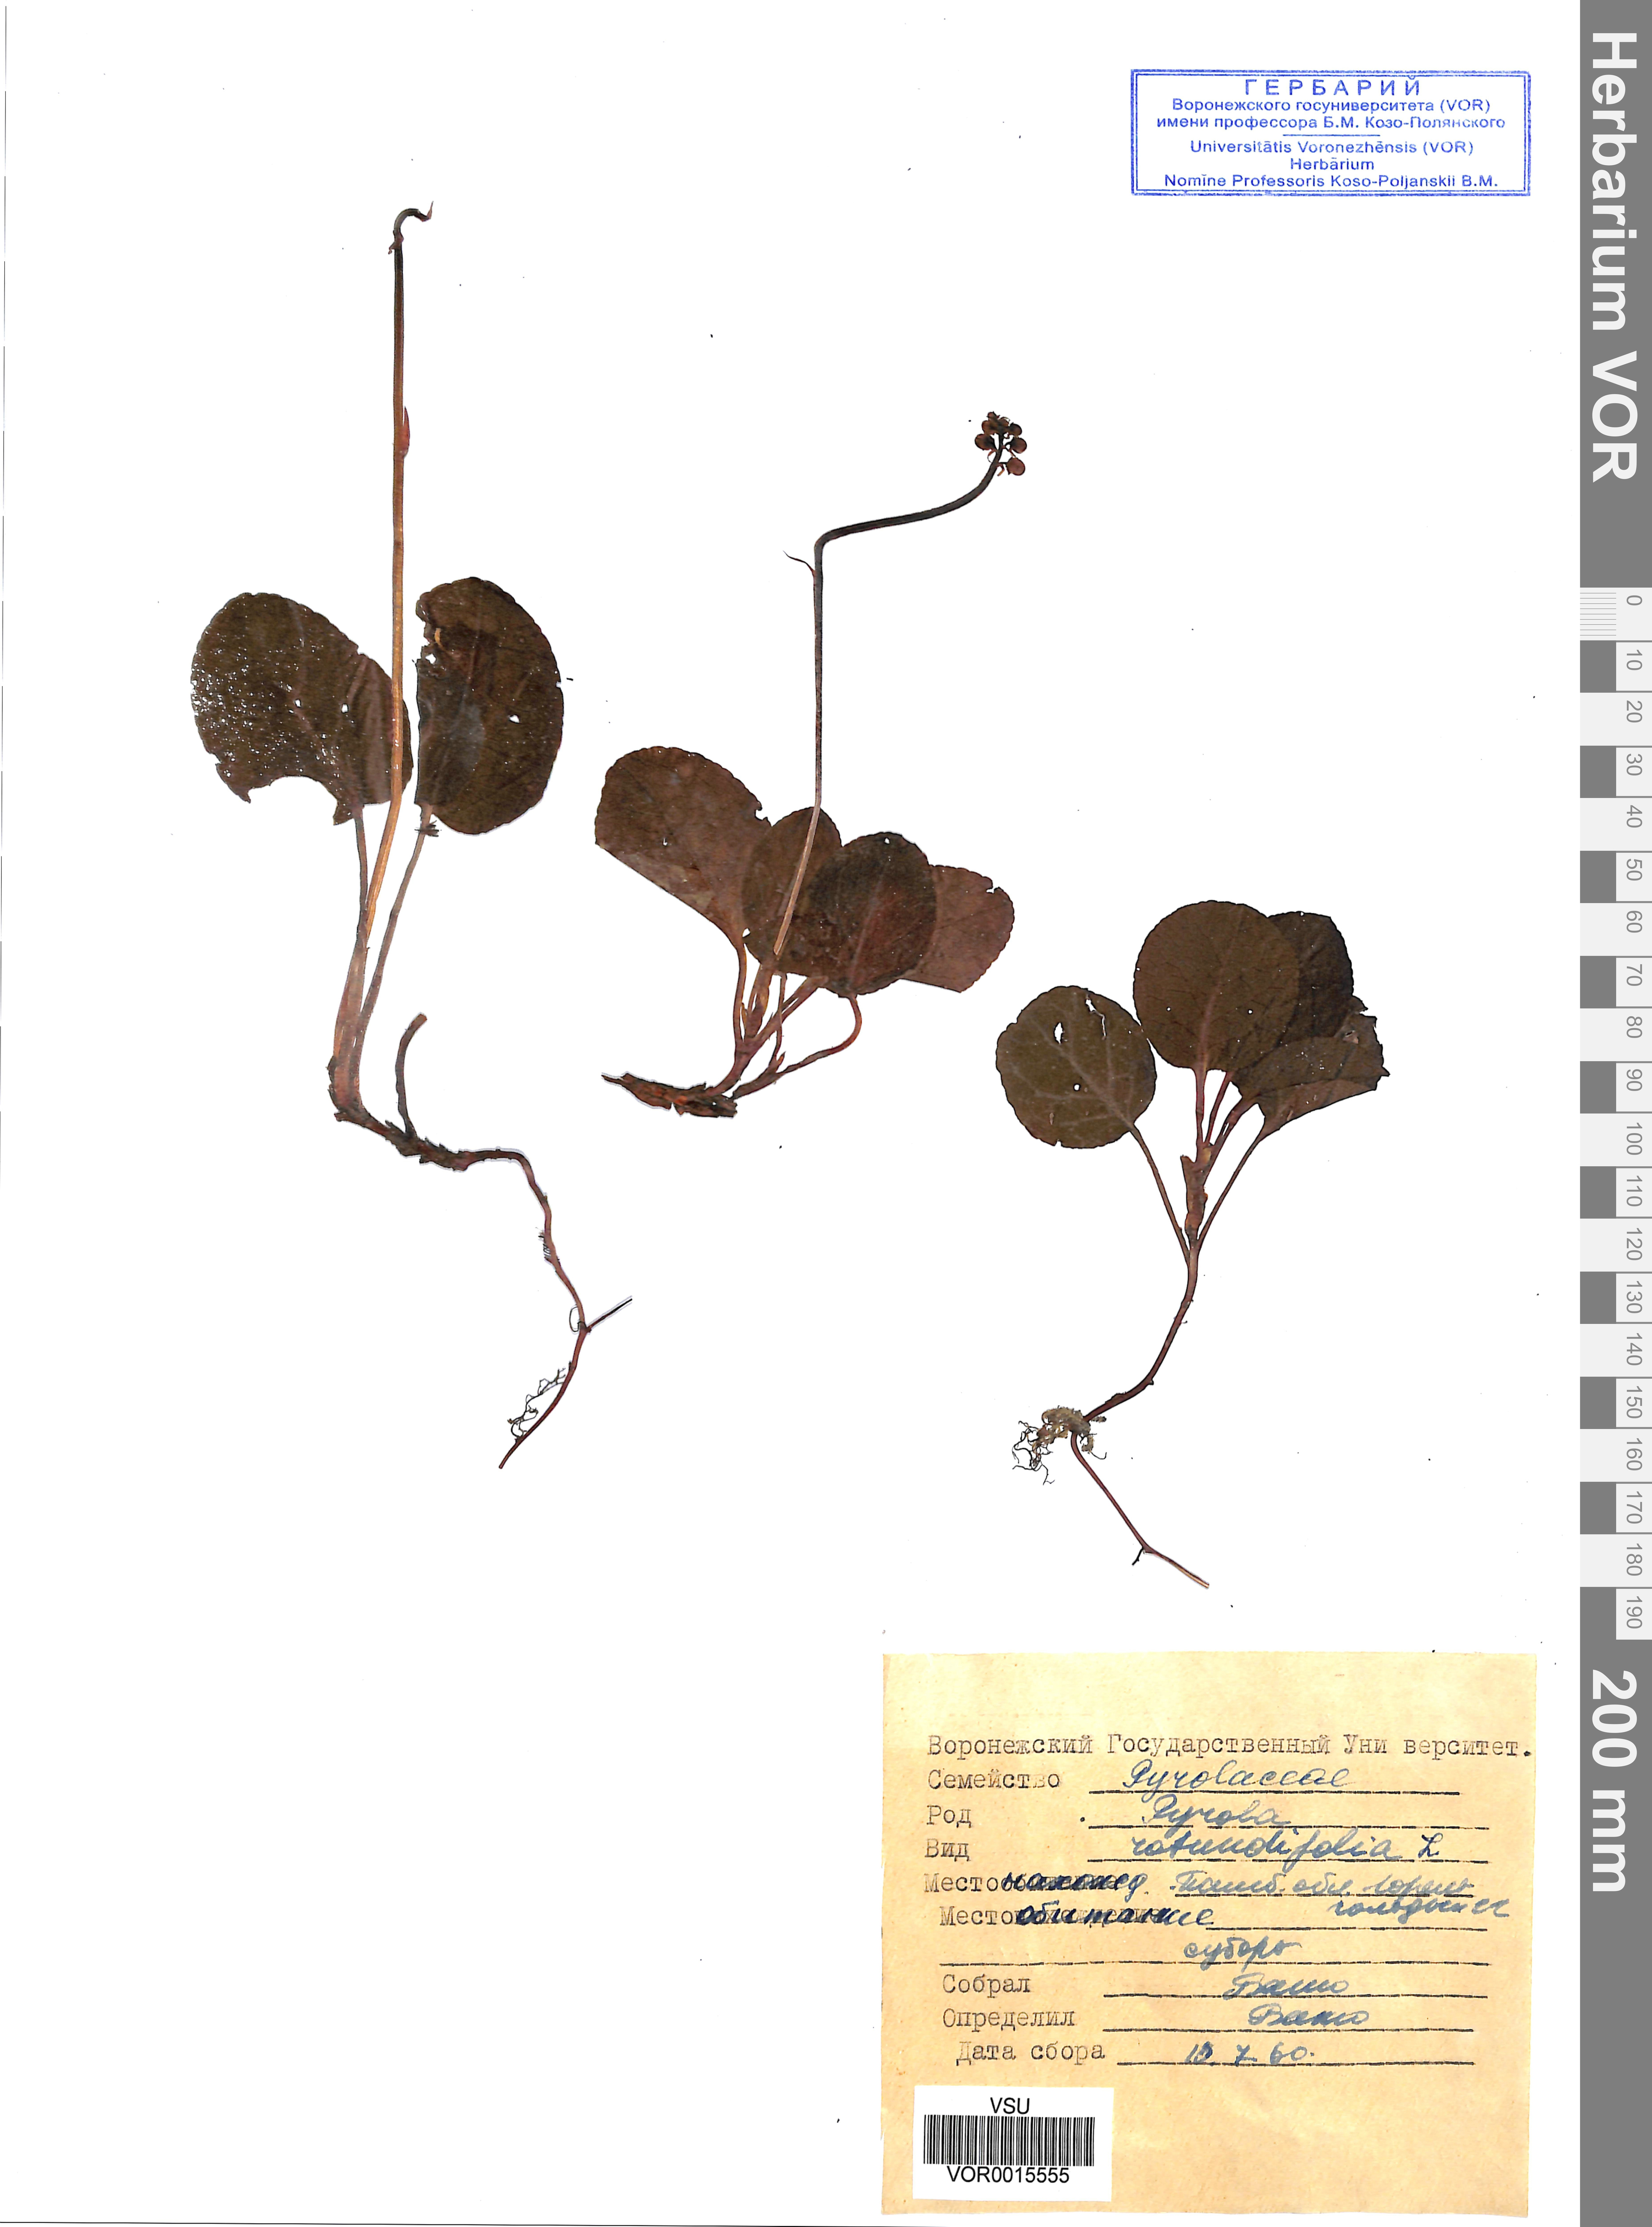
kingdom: Plantae
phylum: Tracheophyta
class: Magnoliopsida
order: Ericales
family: Ericaceae
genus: Pyrola
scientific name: Pyrola rotundifolia
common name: Round-leaved wintergreen
